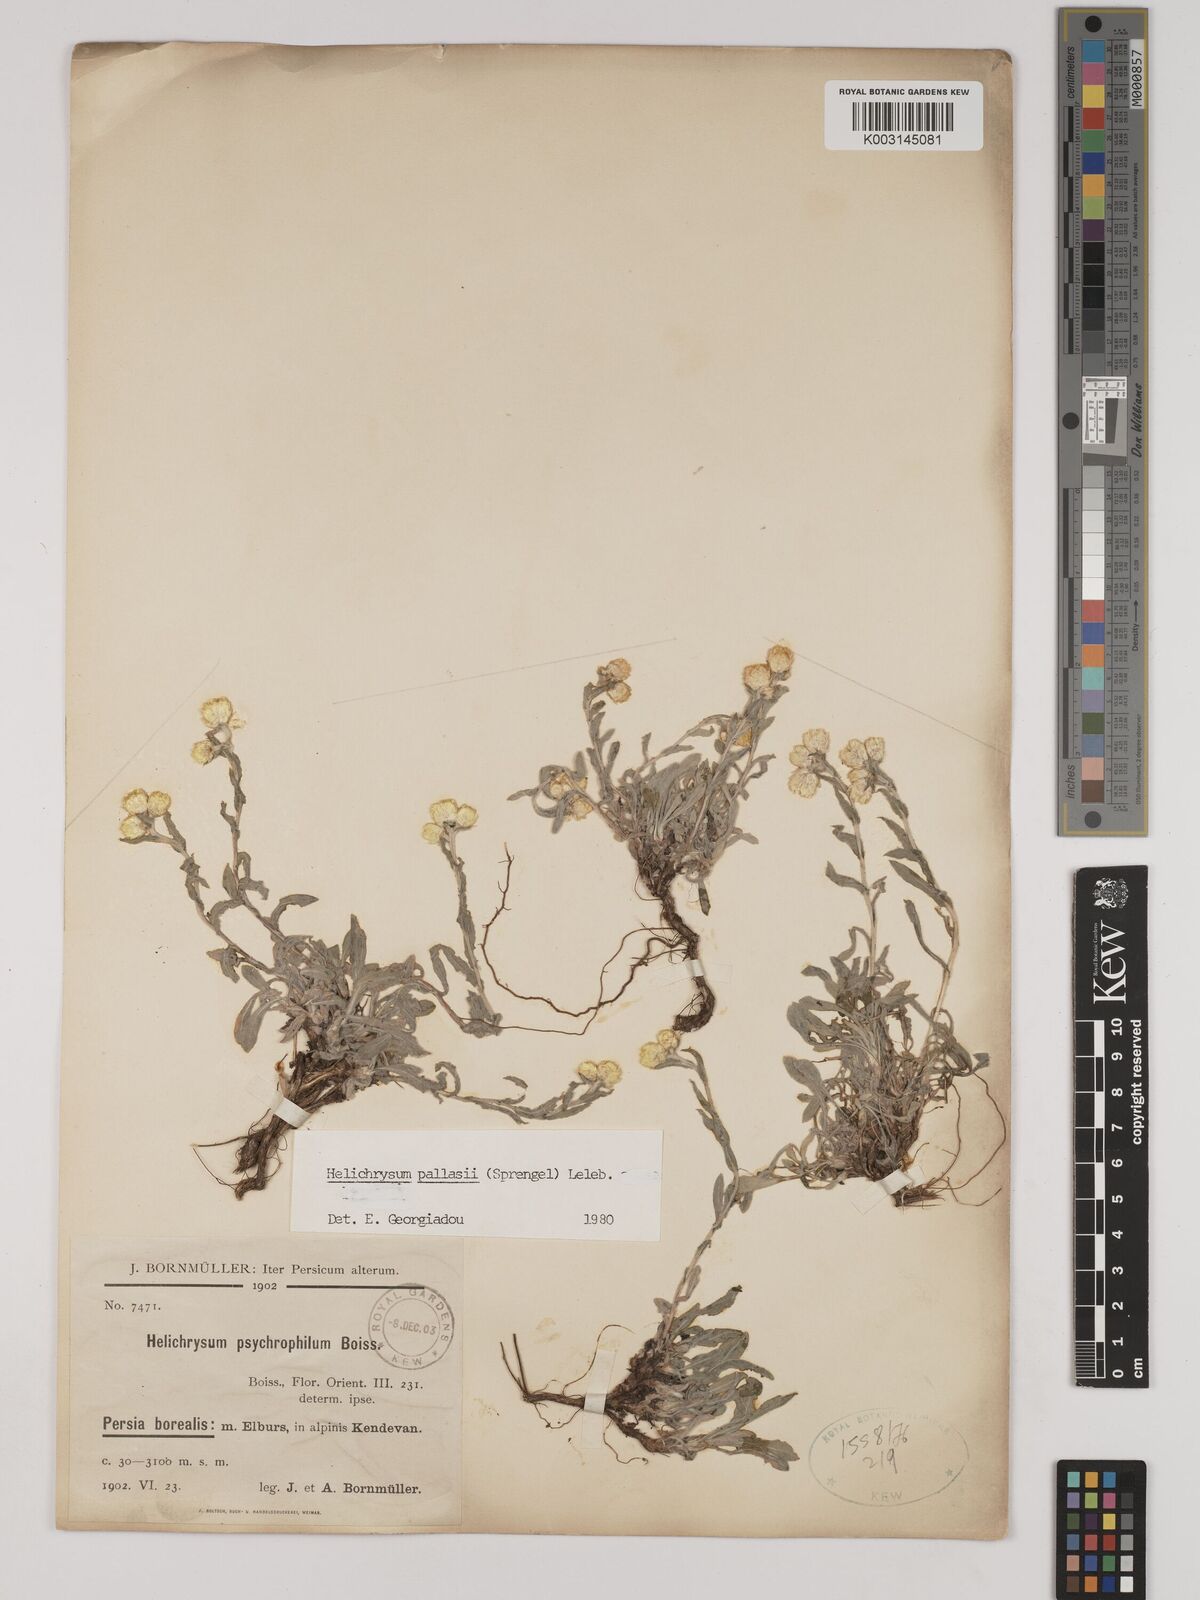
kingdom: Plantae
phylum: Tracheophyta
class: Magnoliopsida
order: Asterales
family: Asteraceae
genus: Helichrysum
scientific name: Helichrysum pallasii
